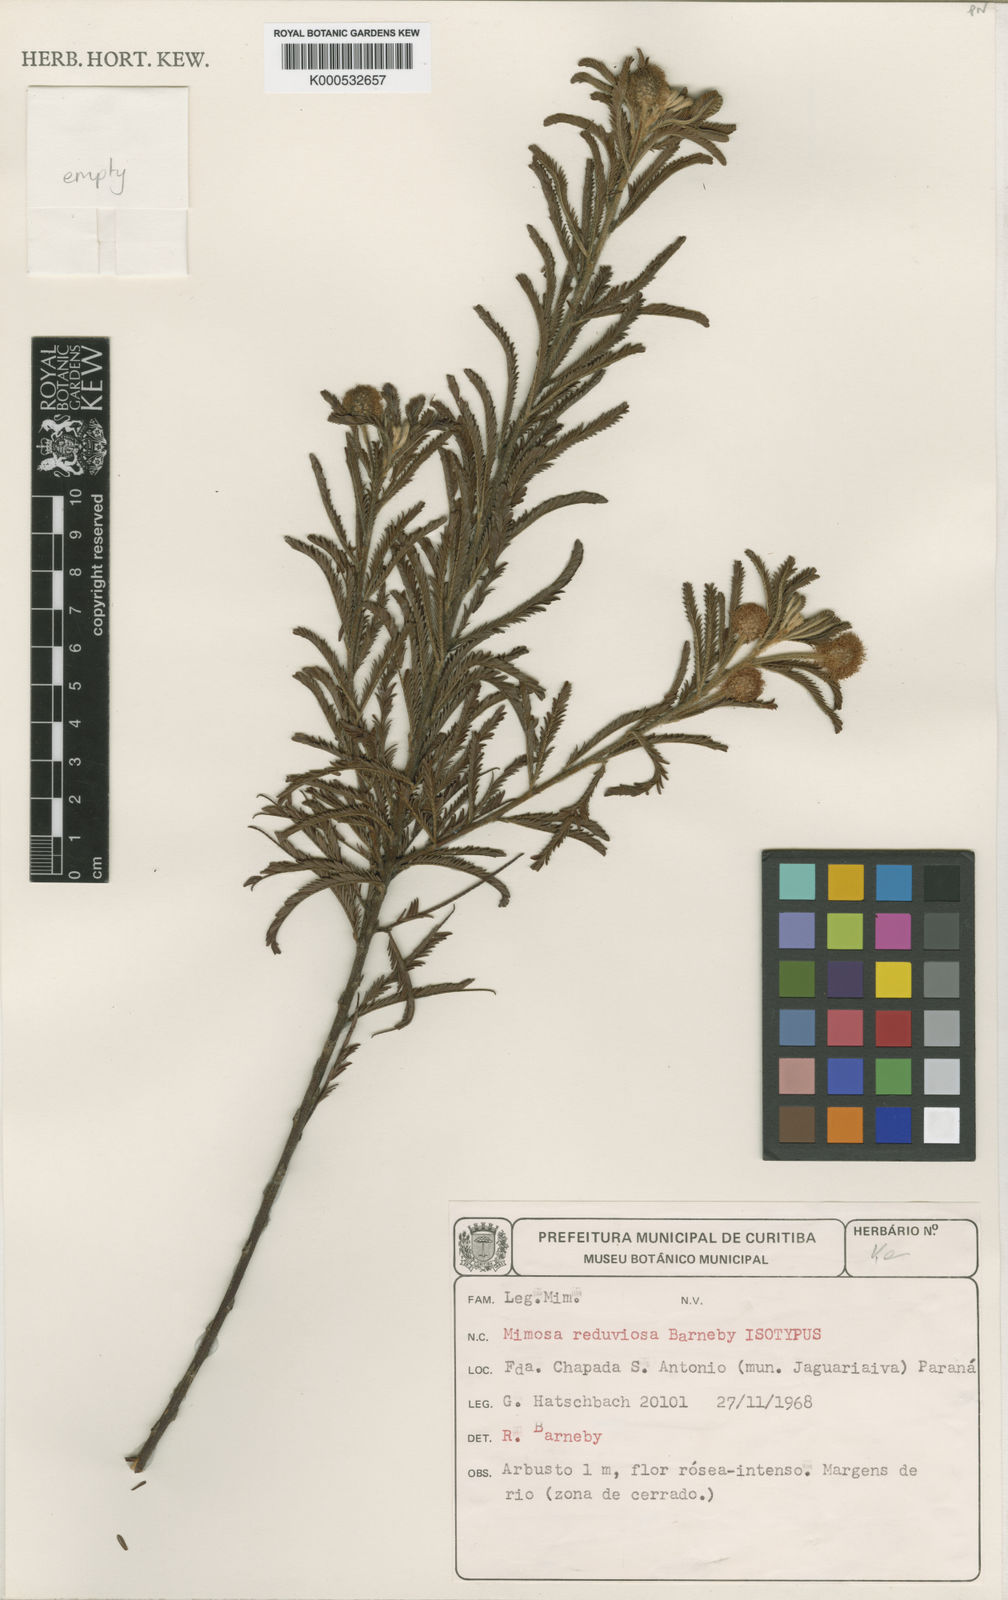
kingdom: Plantae
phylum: Tracheophyta
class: Magnoliopsida
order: Fabales
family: Fabaceae
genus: Mimosa
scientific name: Mimosa reduviosa
